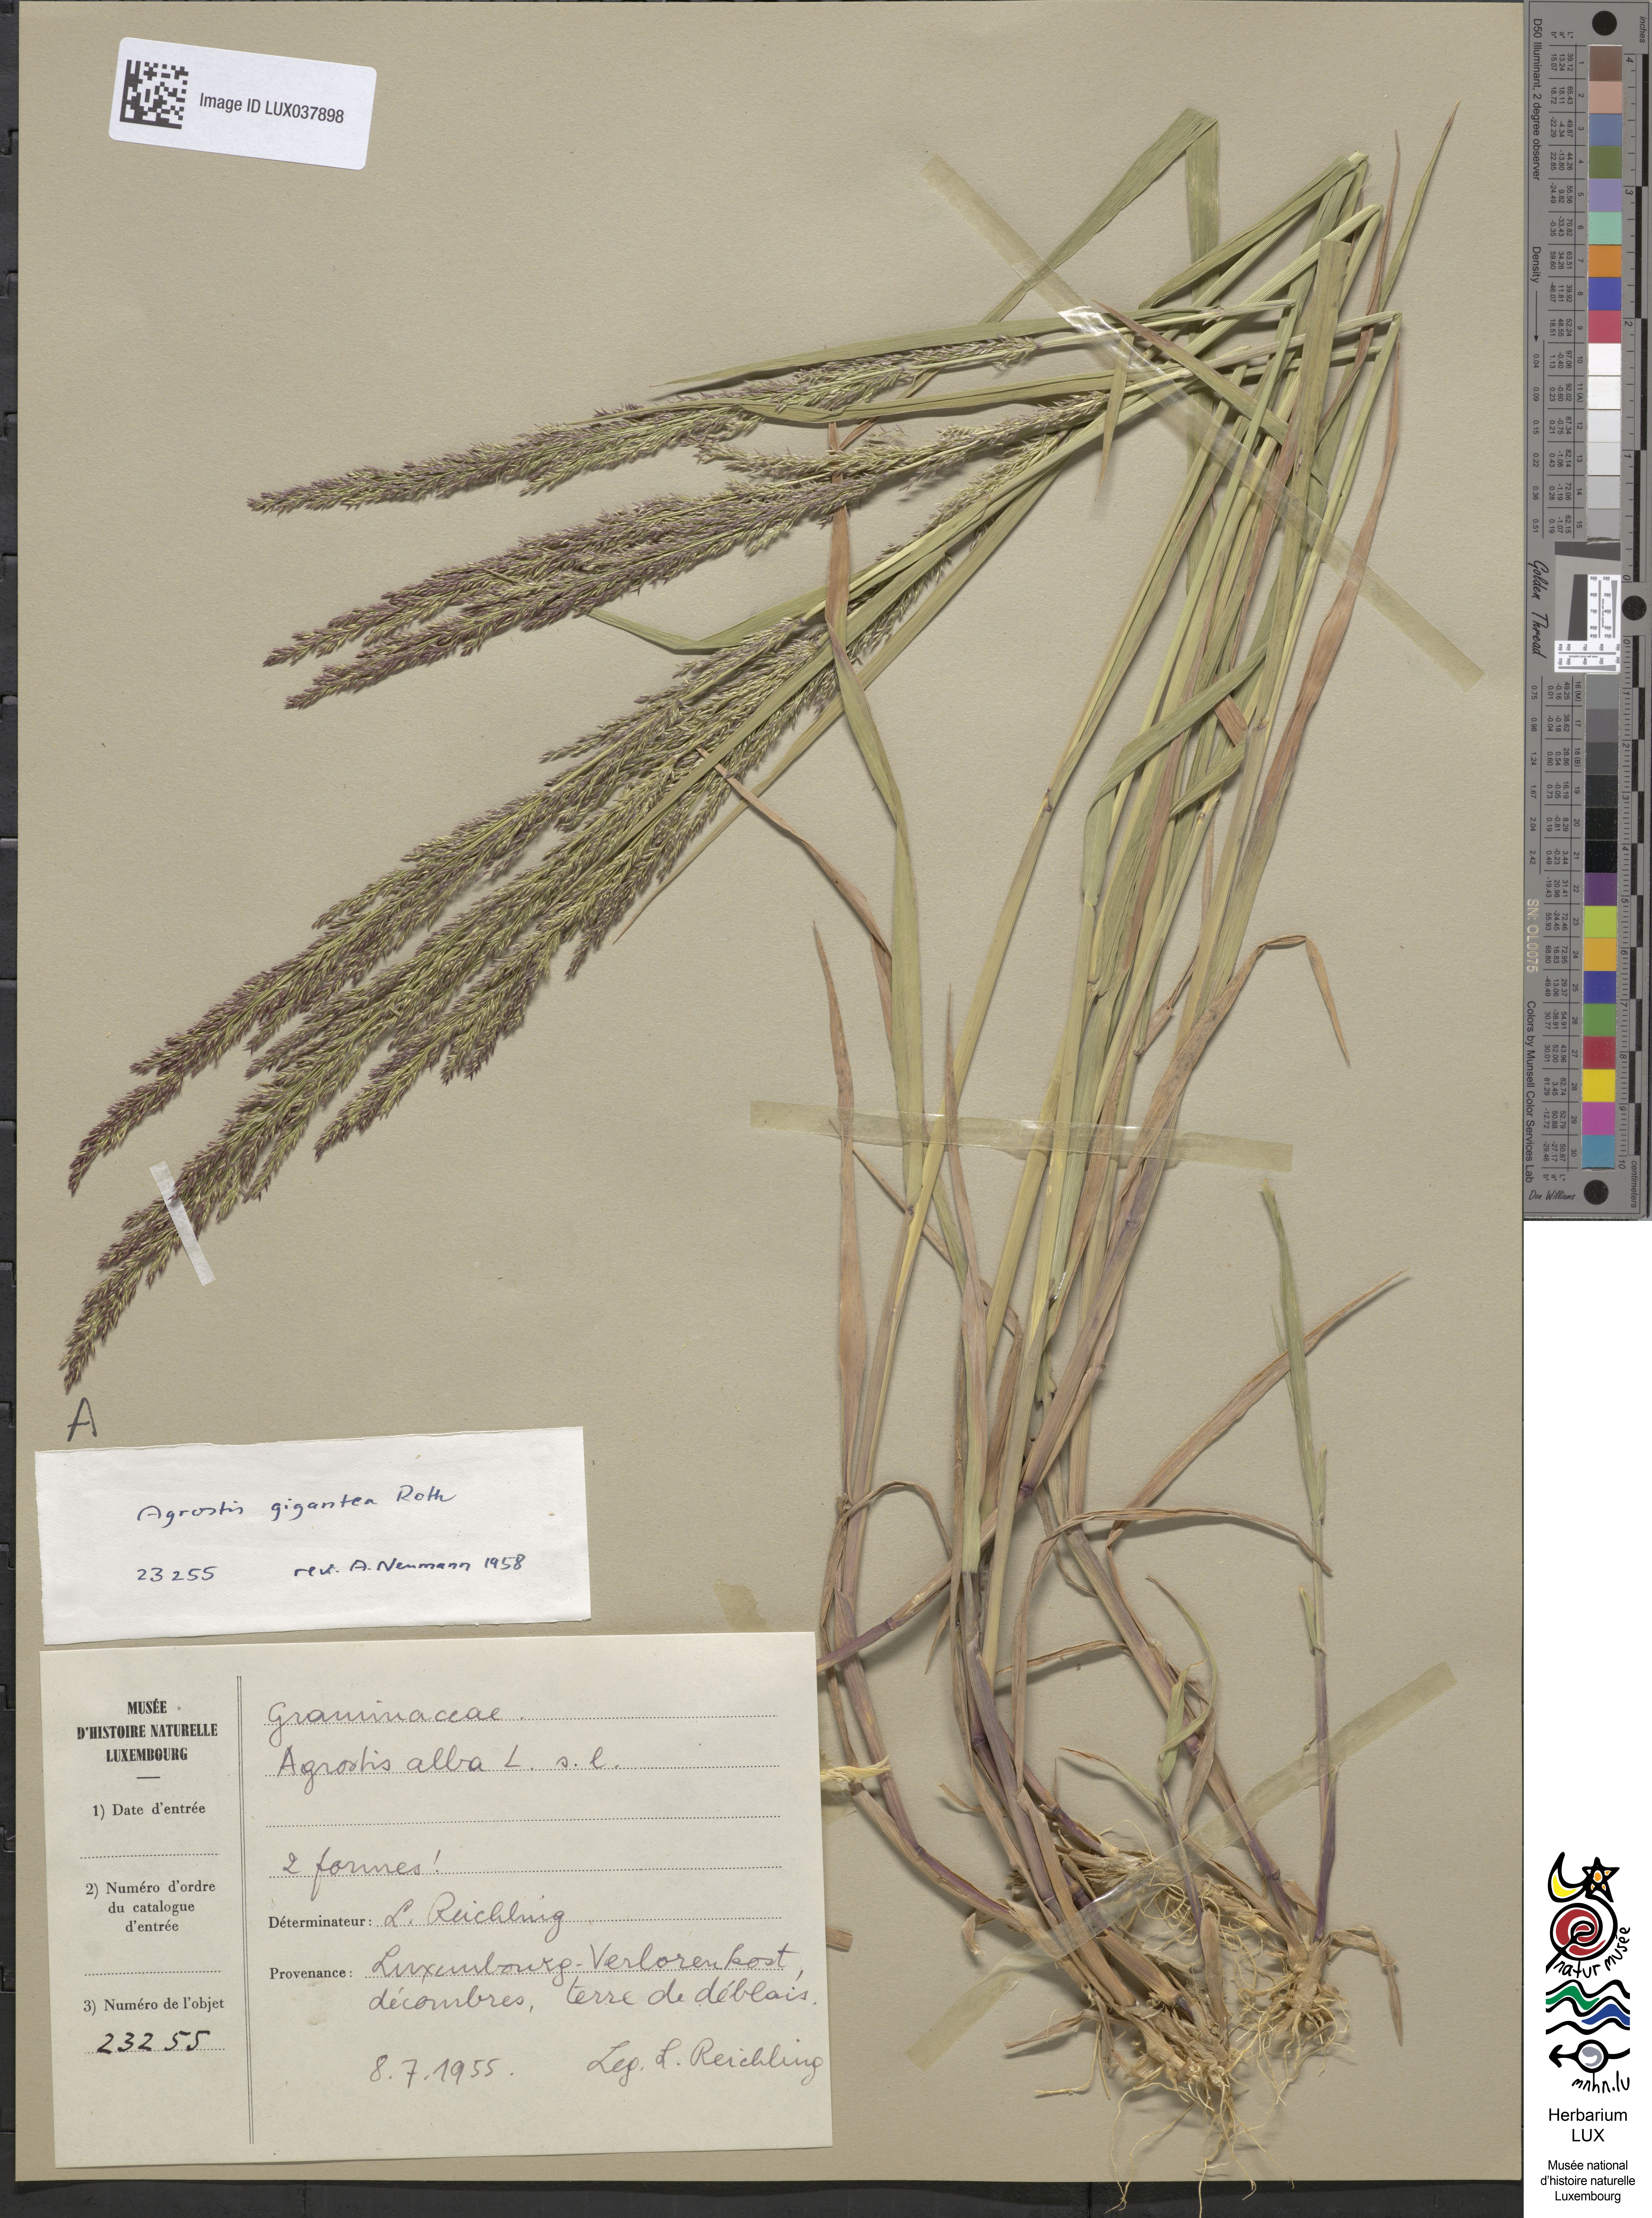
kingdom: Plantae
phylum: Tracheophyta
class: Liliopsida
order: Poales
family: Poaceae
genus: Agrostis
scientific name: Agrostis gigantea
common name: Black bent
